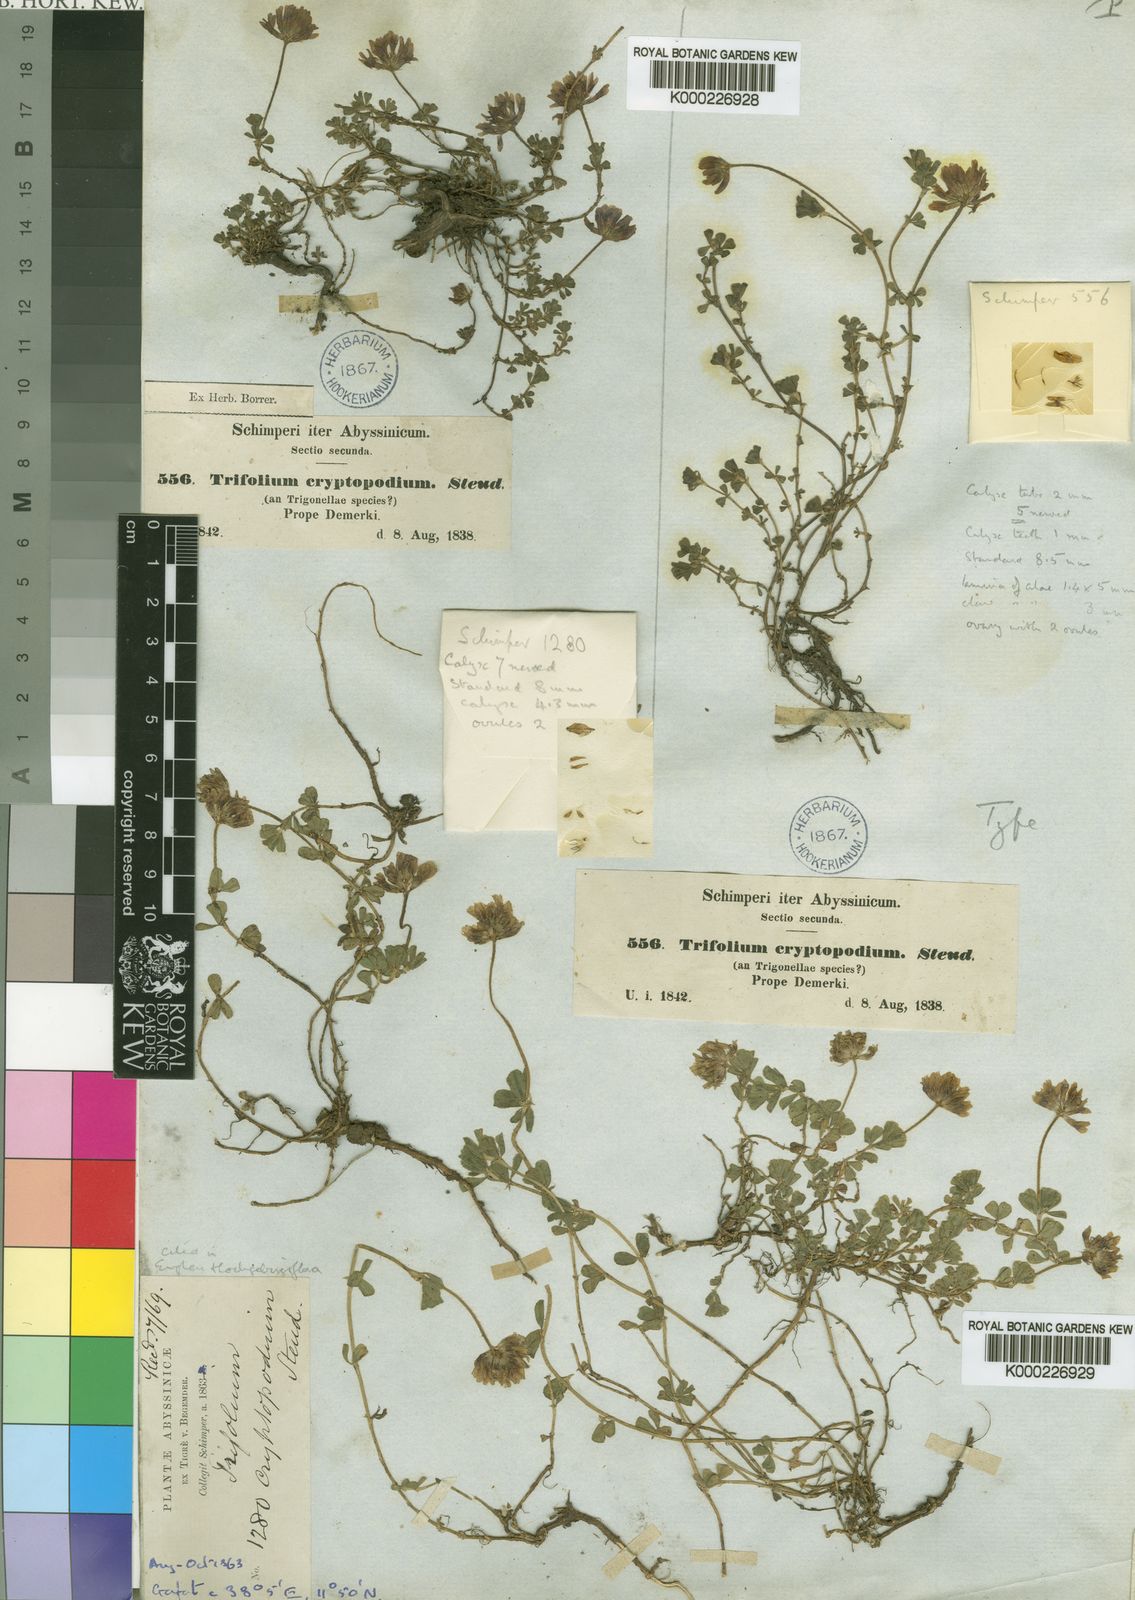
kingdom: Plantae
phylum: Tracheophyta
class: Magnoliopsida
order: Fabales
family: Fabaceae
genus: Trifolium
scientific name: Trifolium
